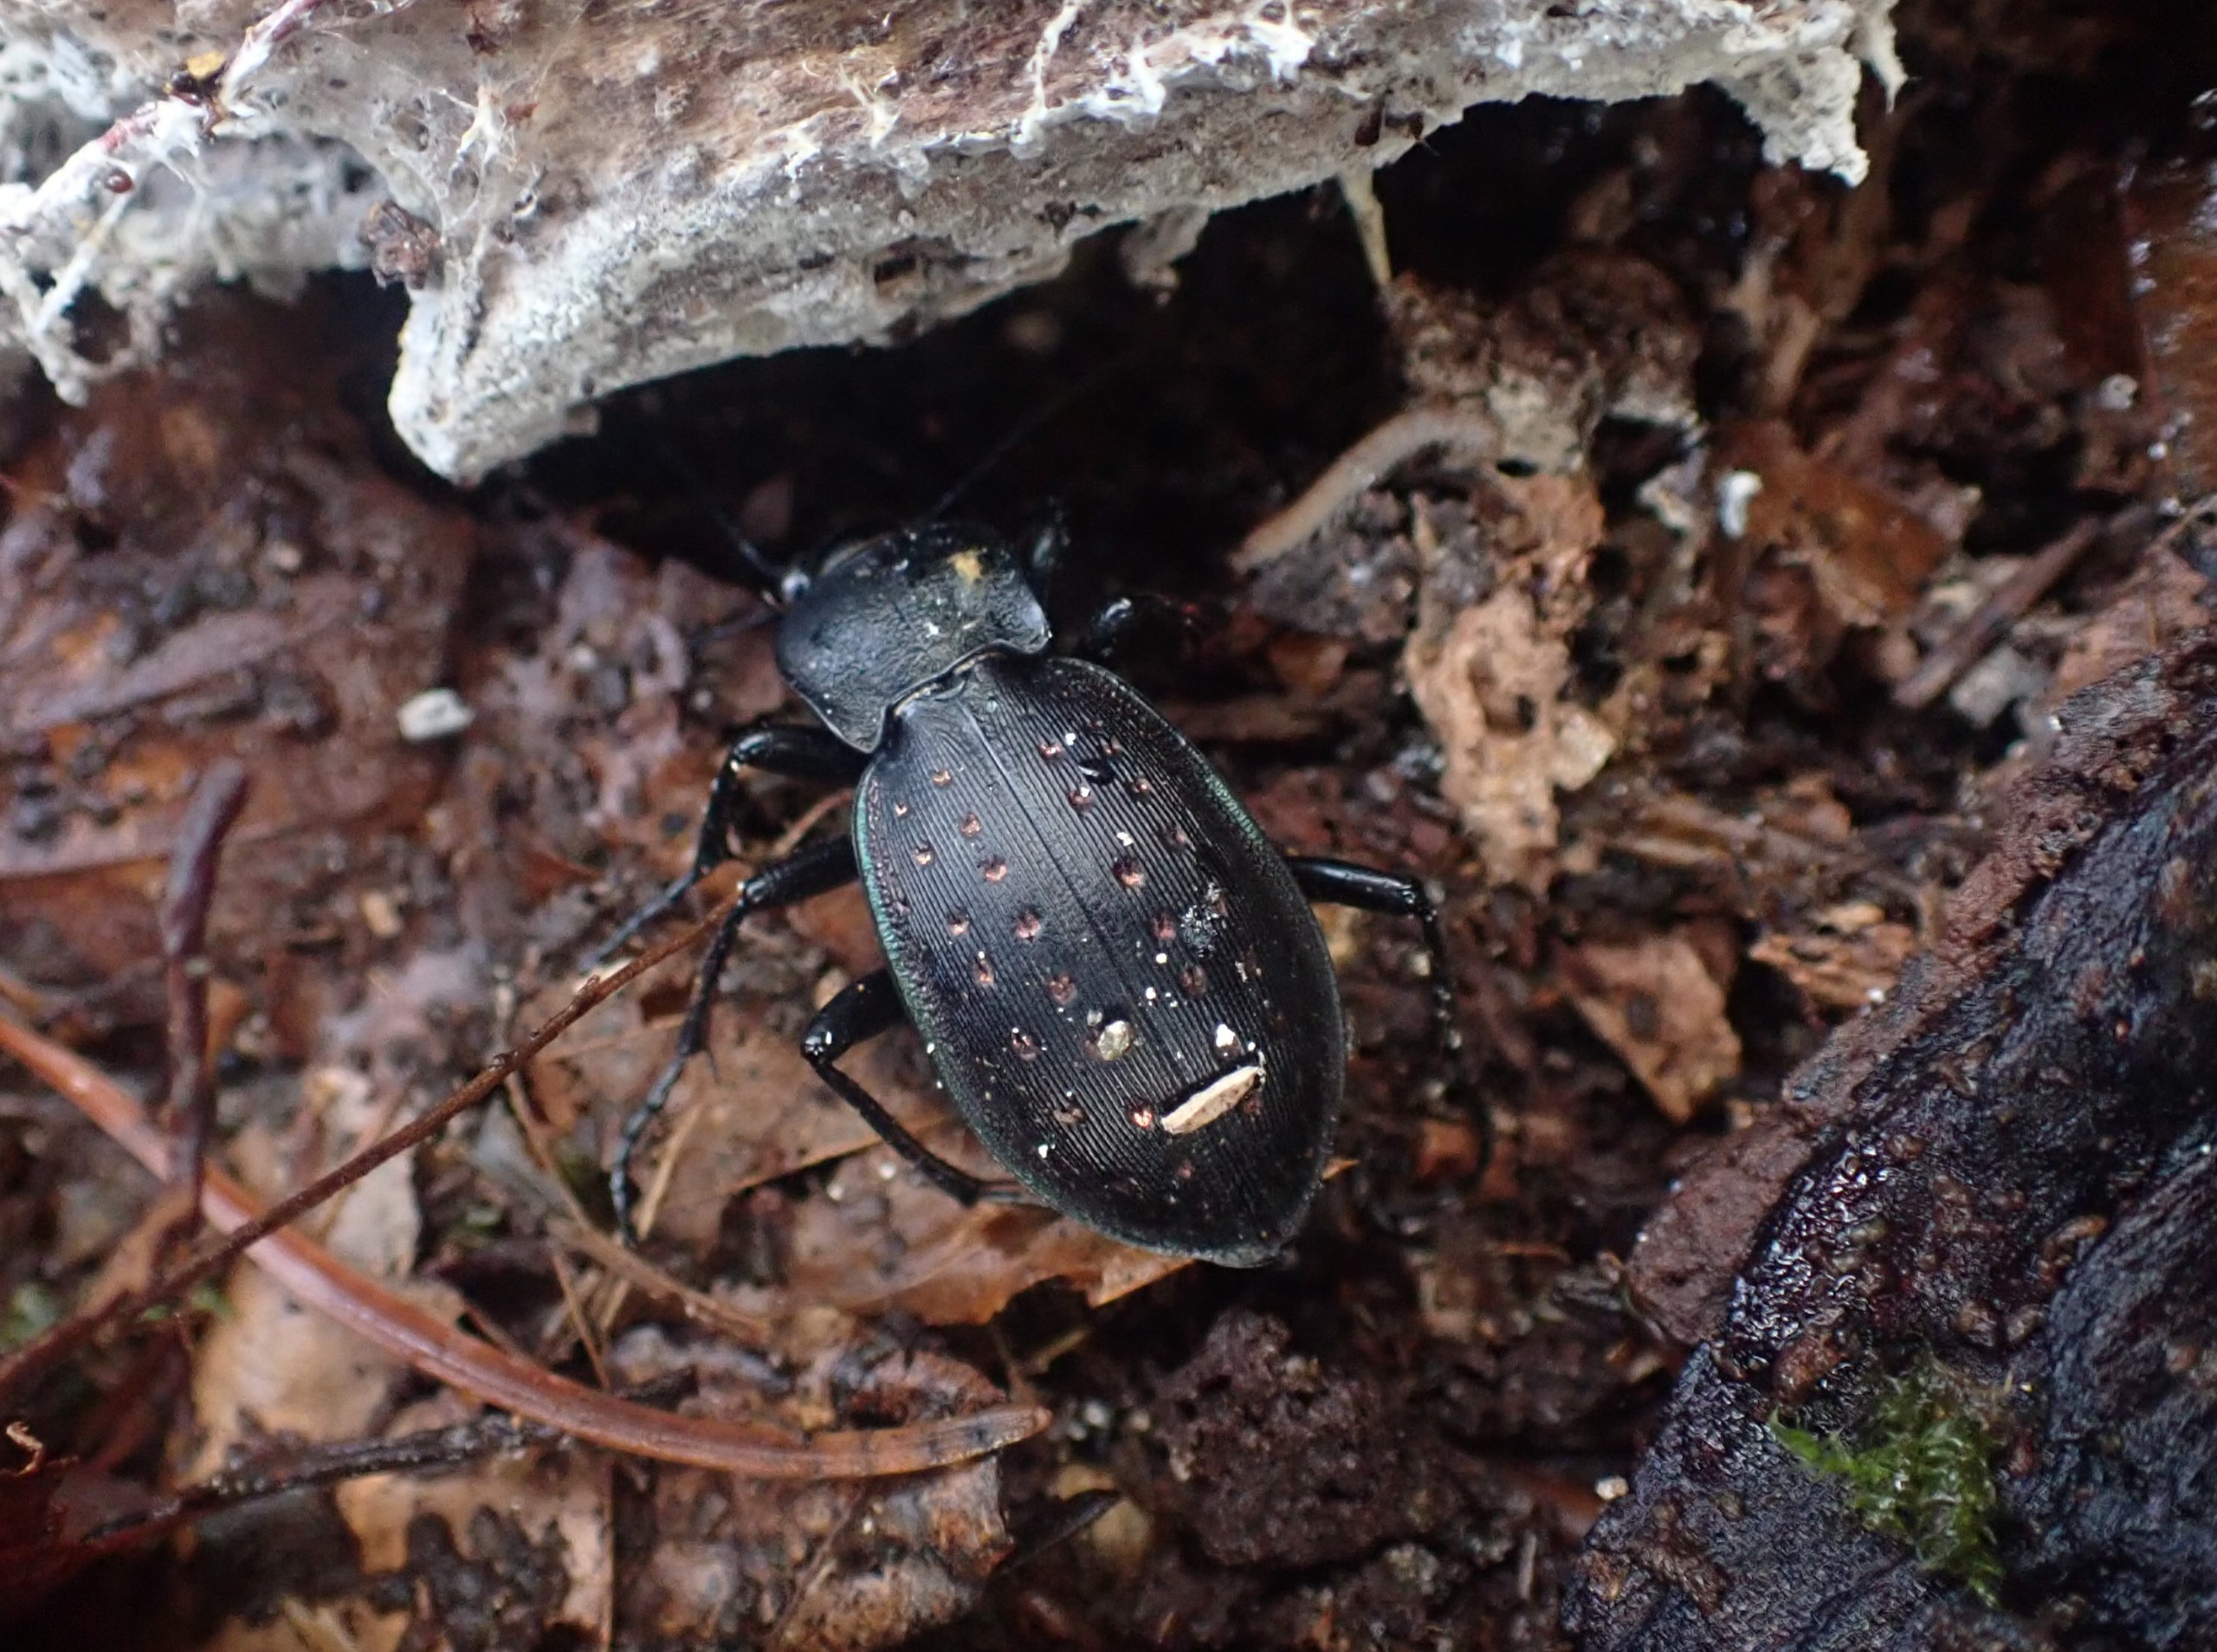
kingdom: Animalia
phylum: Arthropoda
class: Insecta
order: Coleoptera
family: Carabidae
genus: Carabus
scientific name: Carabus hortensis
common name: Guldpletløber
